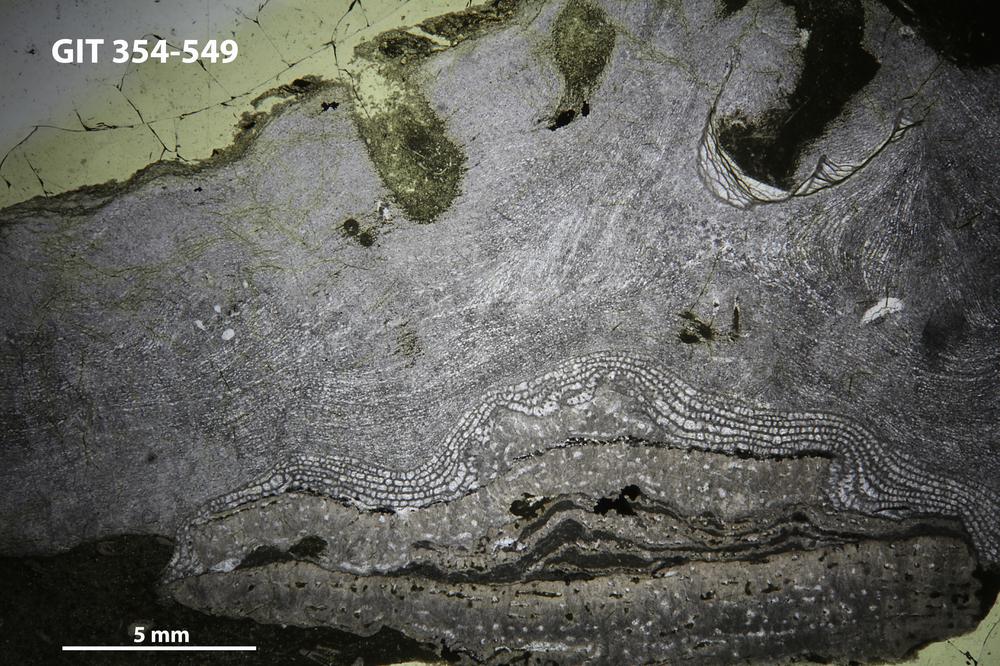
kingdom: Animalia
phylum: Porifera
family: Clathrodictyidae
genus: Clathrodictyon
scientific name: Clathrodictyon delicatulum
